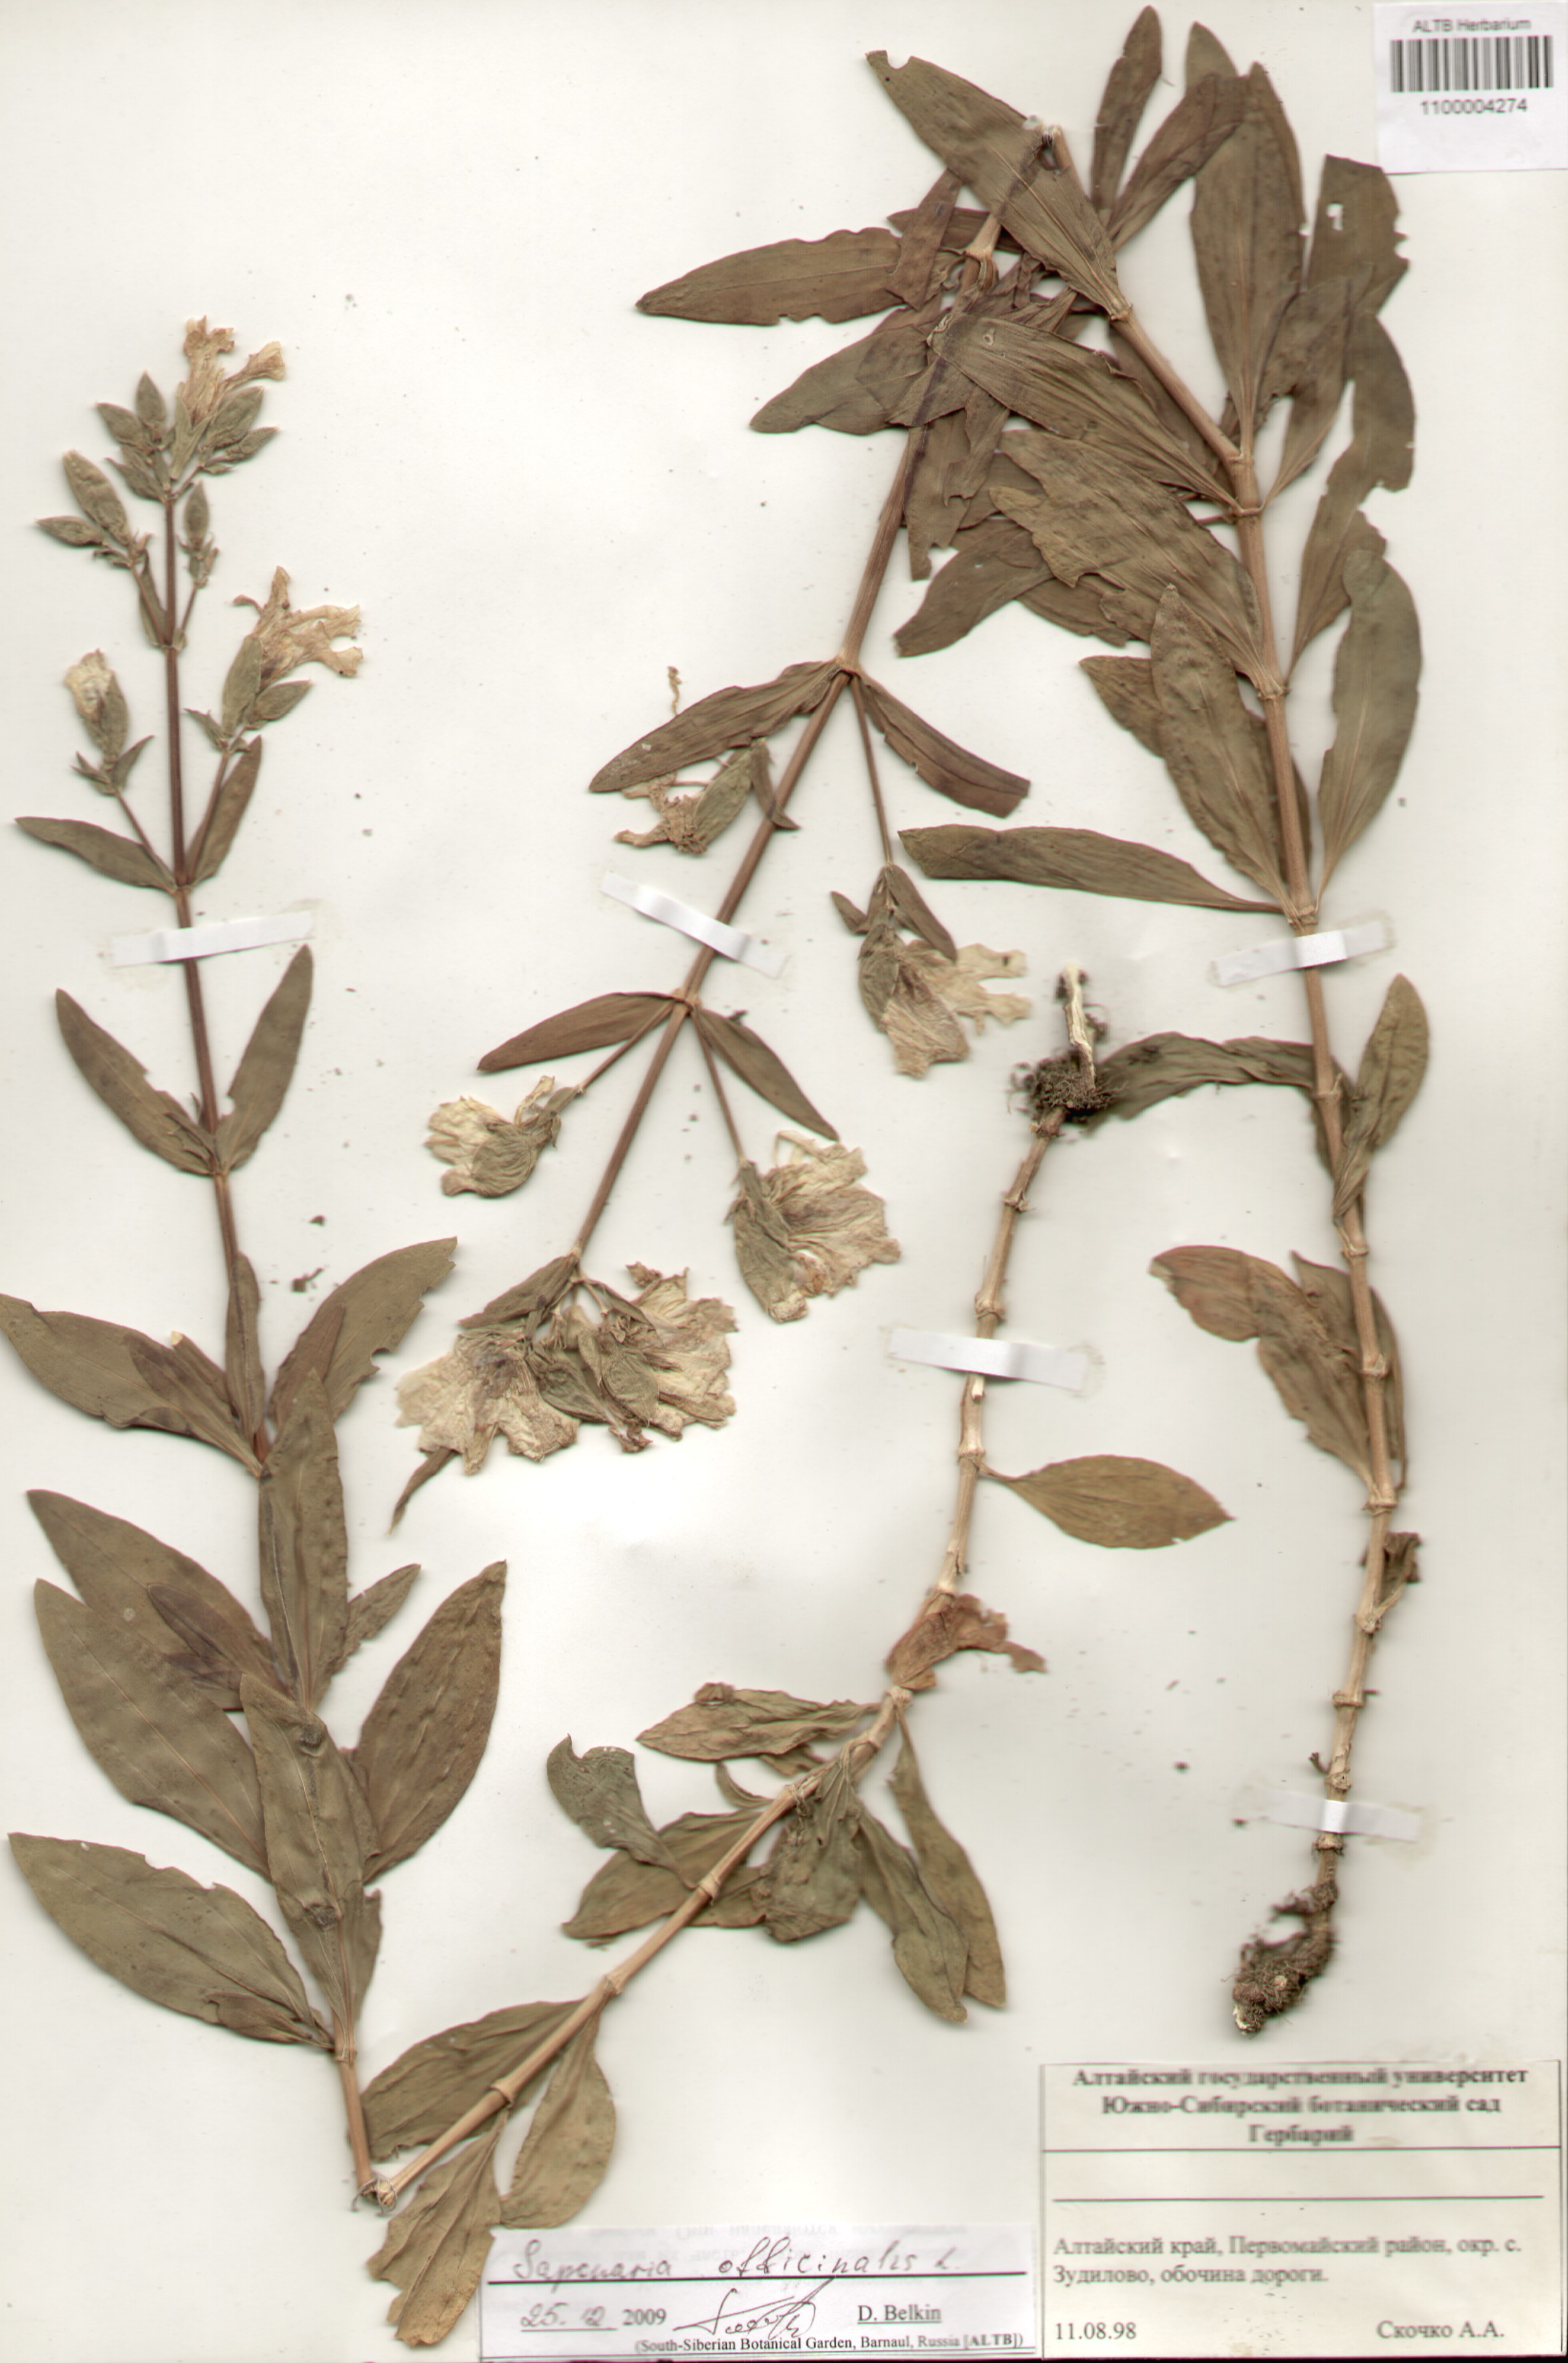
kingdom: Plantae
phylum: Tracheophyta
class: Magnoliopsida
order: Caryophyllales
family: Caryophyllaceae
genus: Saponaria
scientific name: Saponaria officinalis
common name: Soapwort
